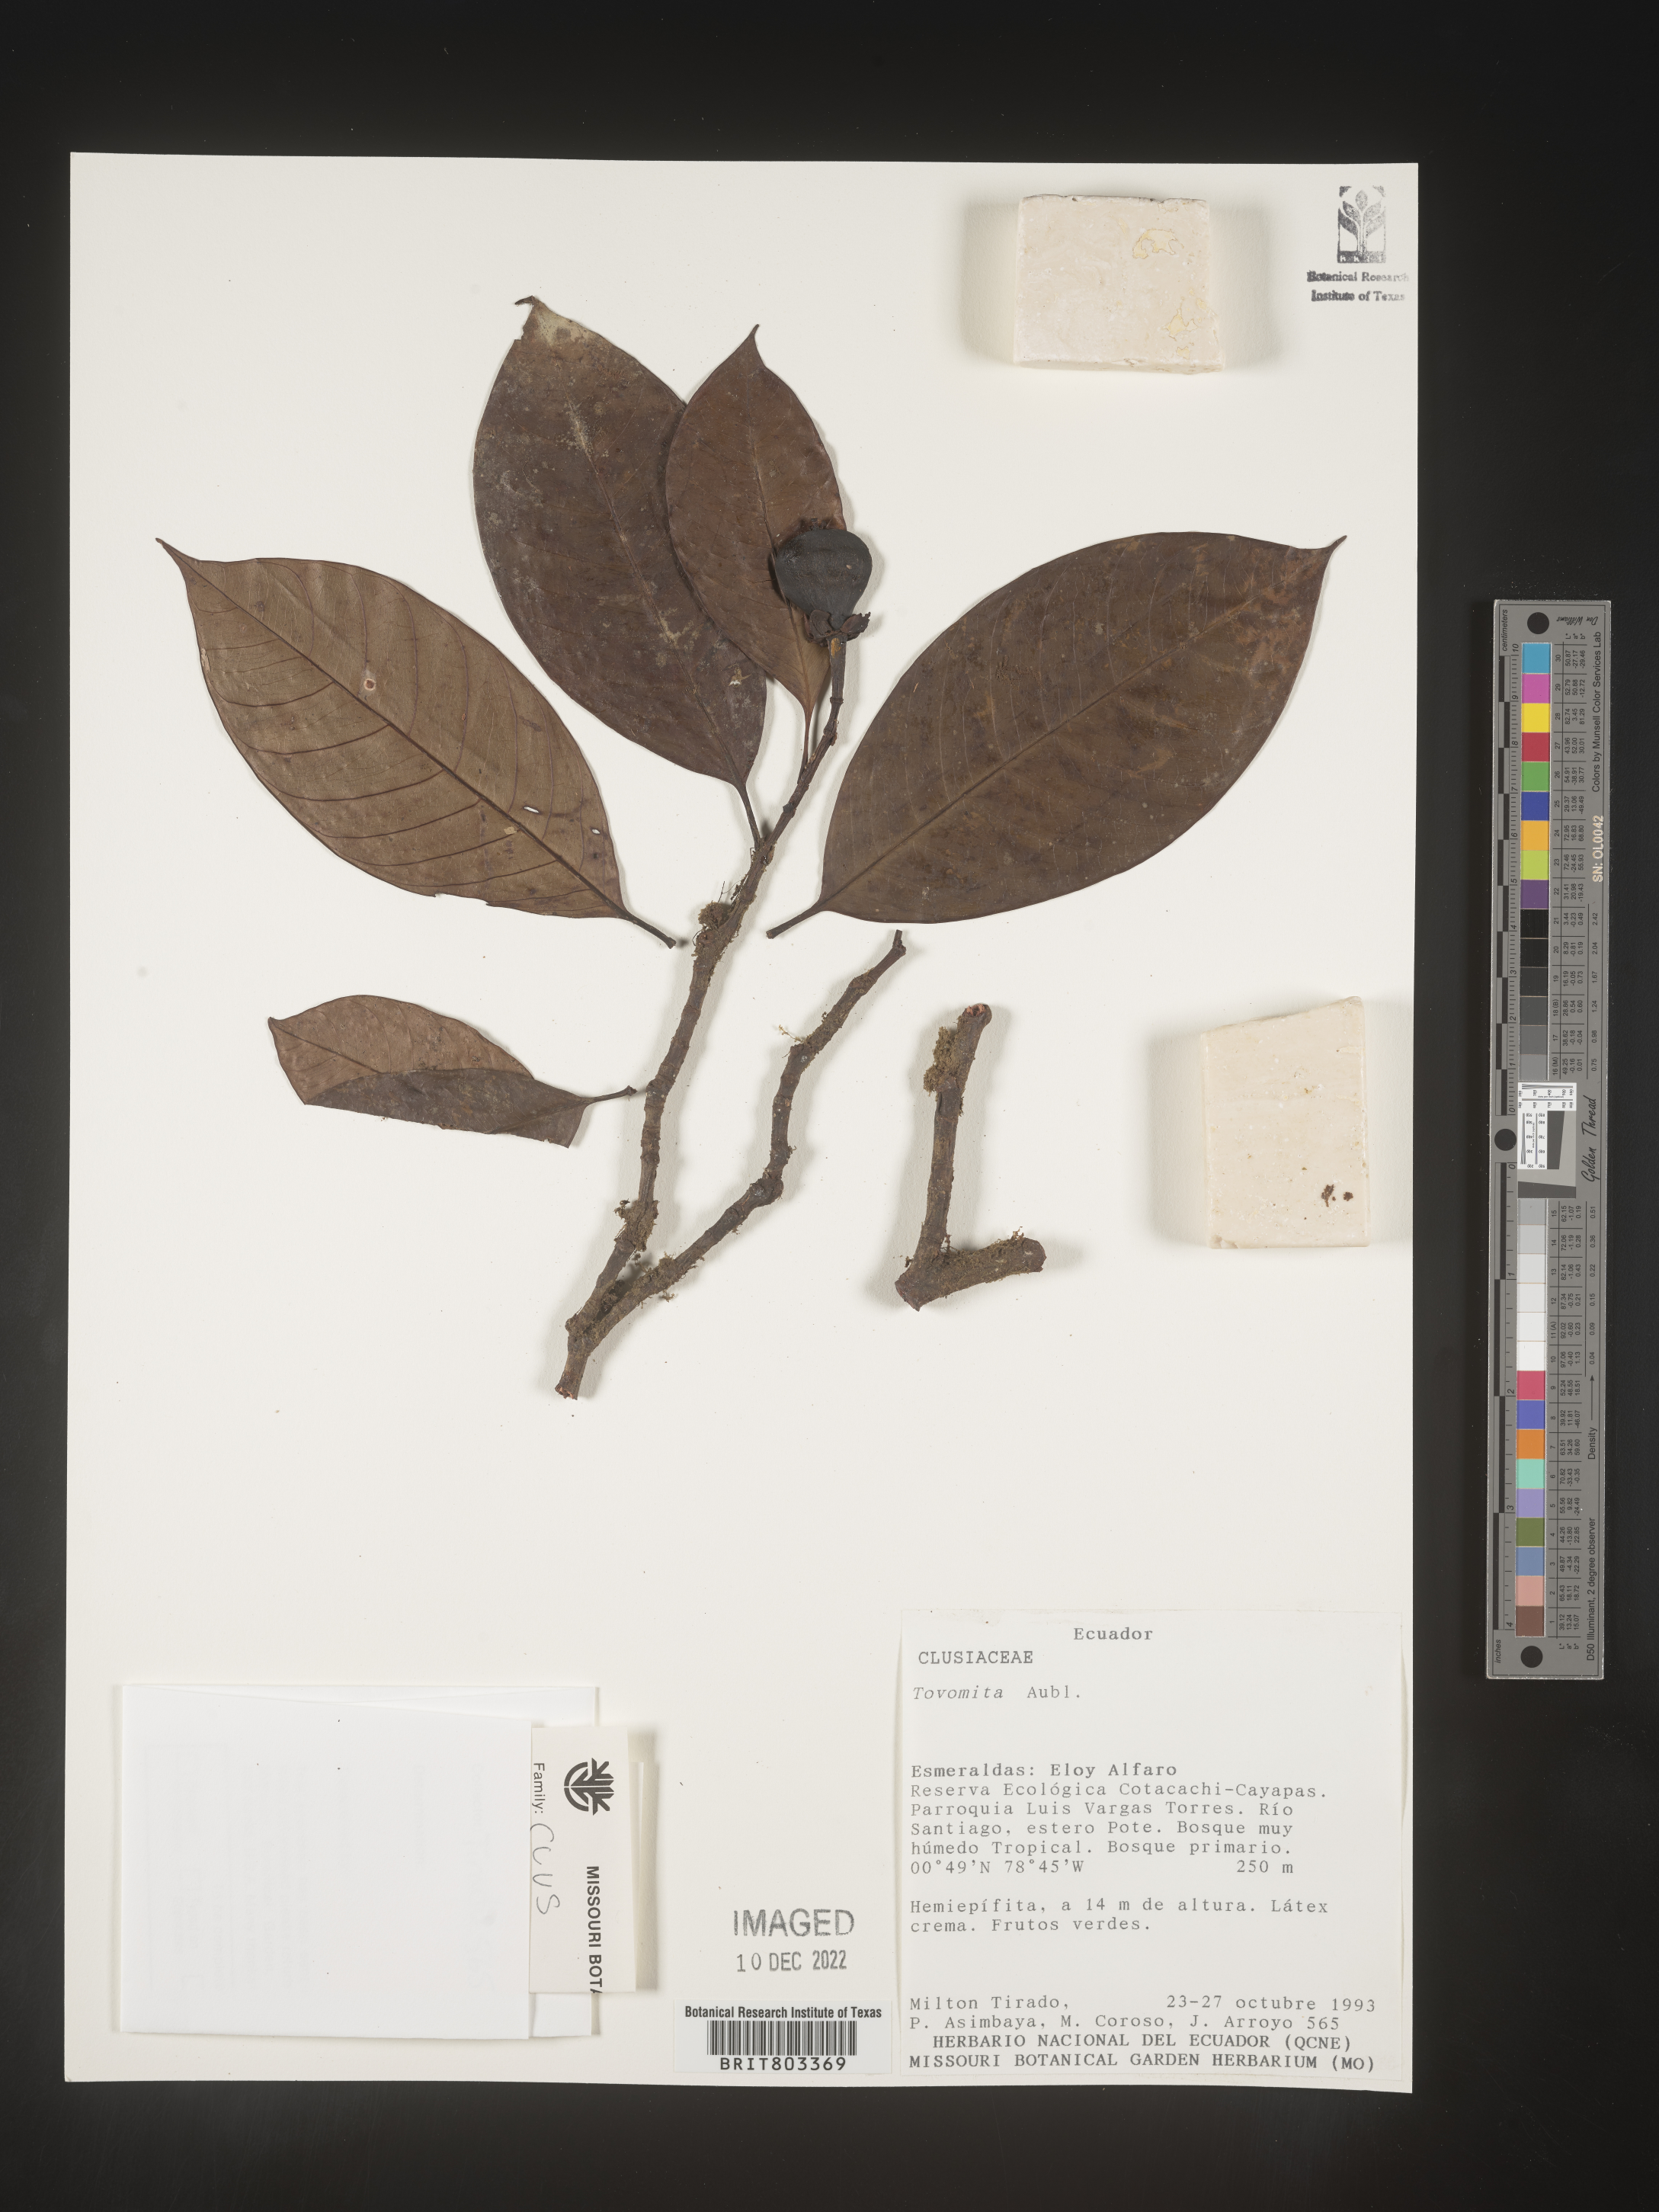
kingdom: Plantae
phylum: Tracheophyta
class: Magnoliopsida
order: Malpighiales
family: Clusiaceae
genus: Tovomita
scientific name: Tovomita
